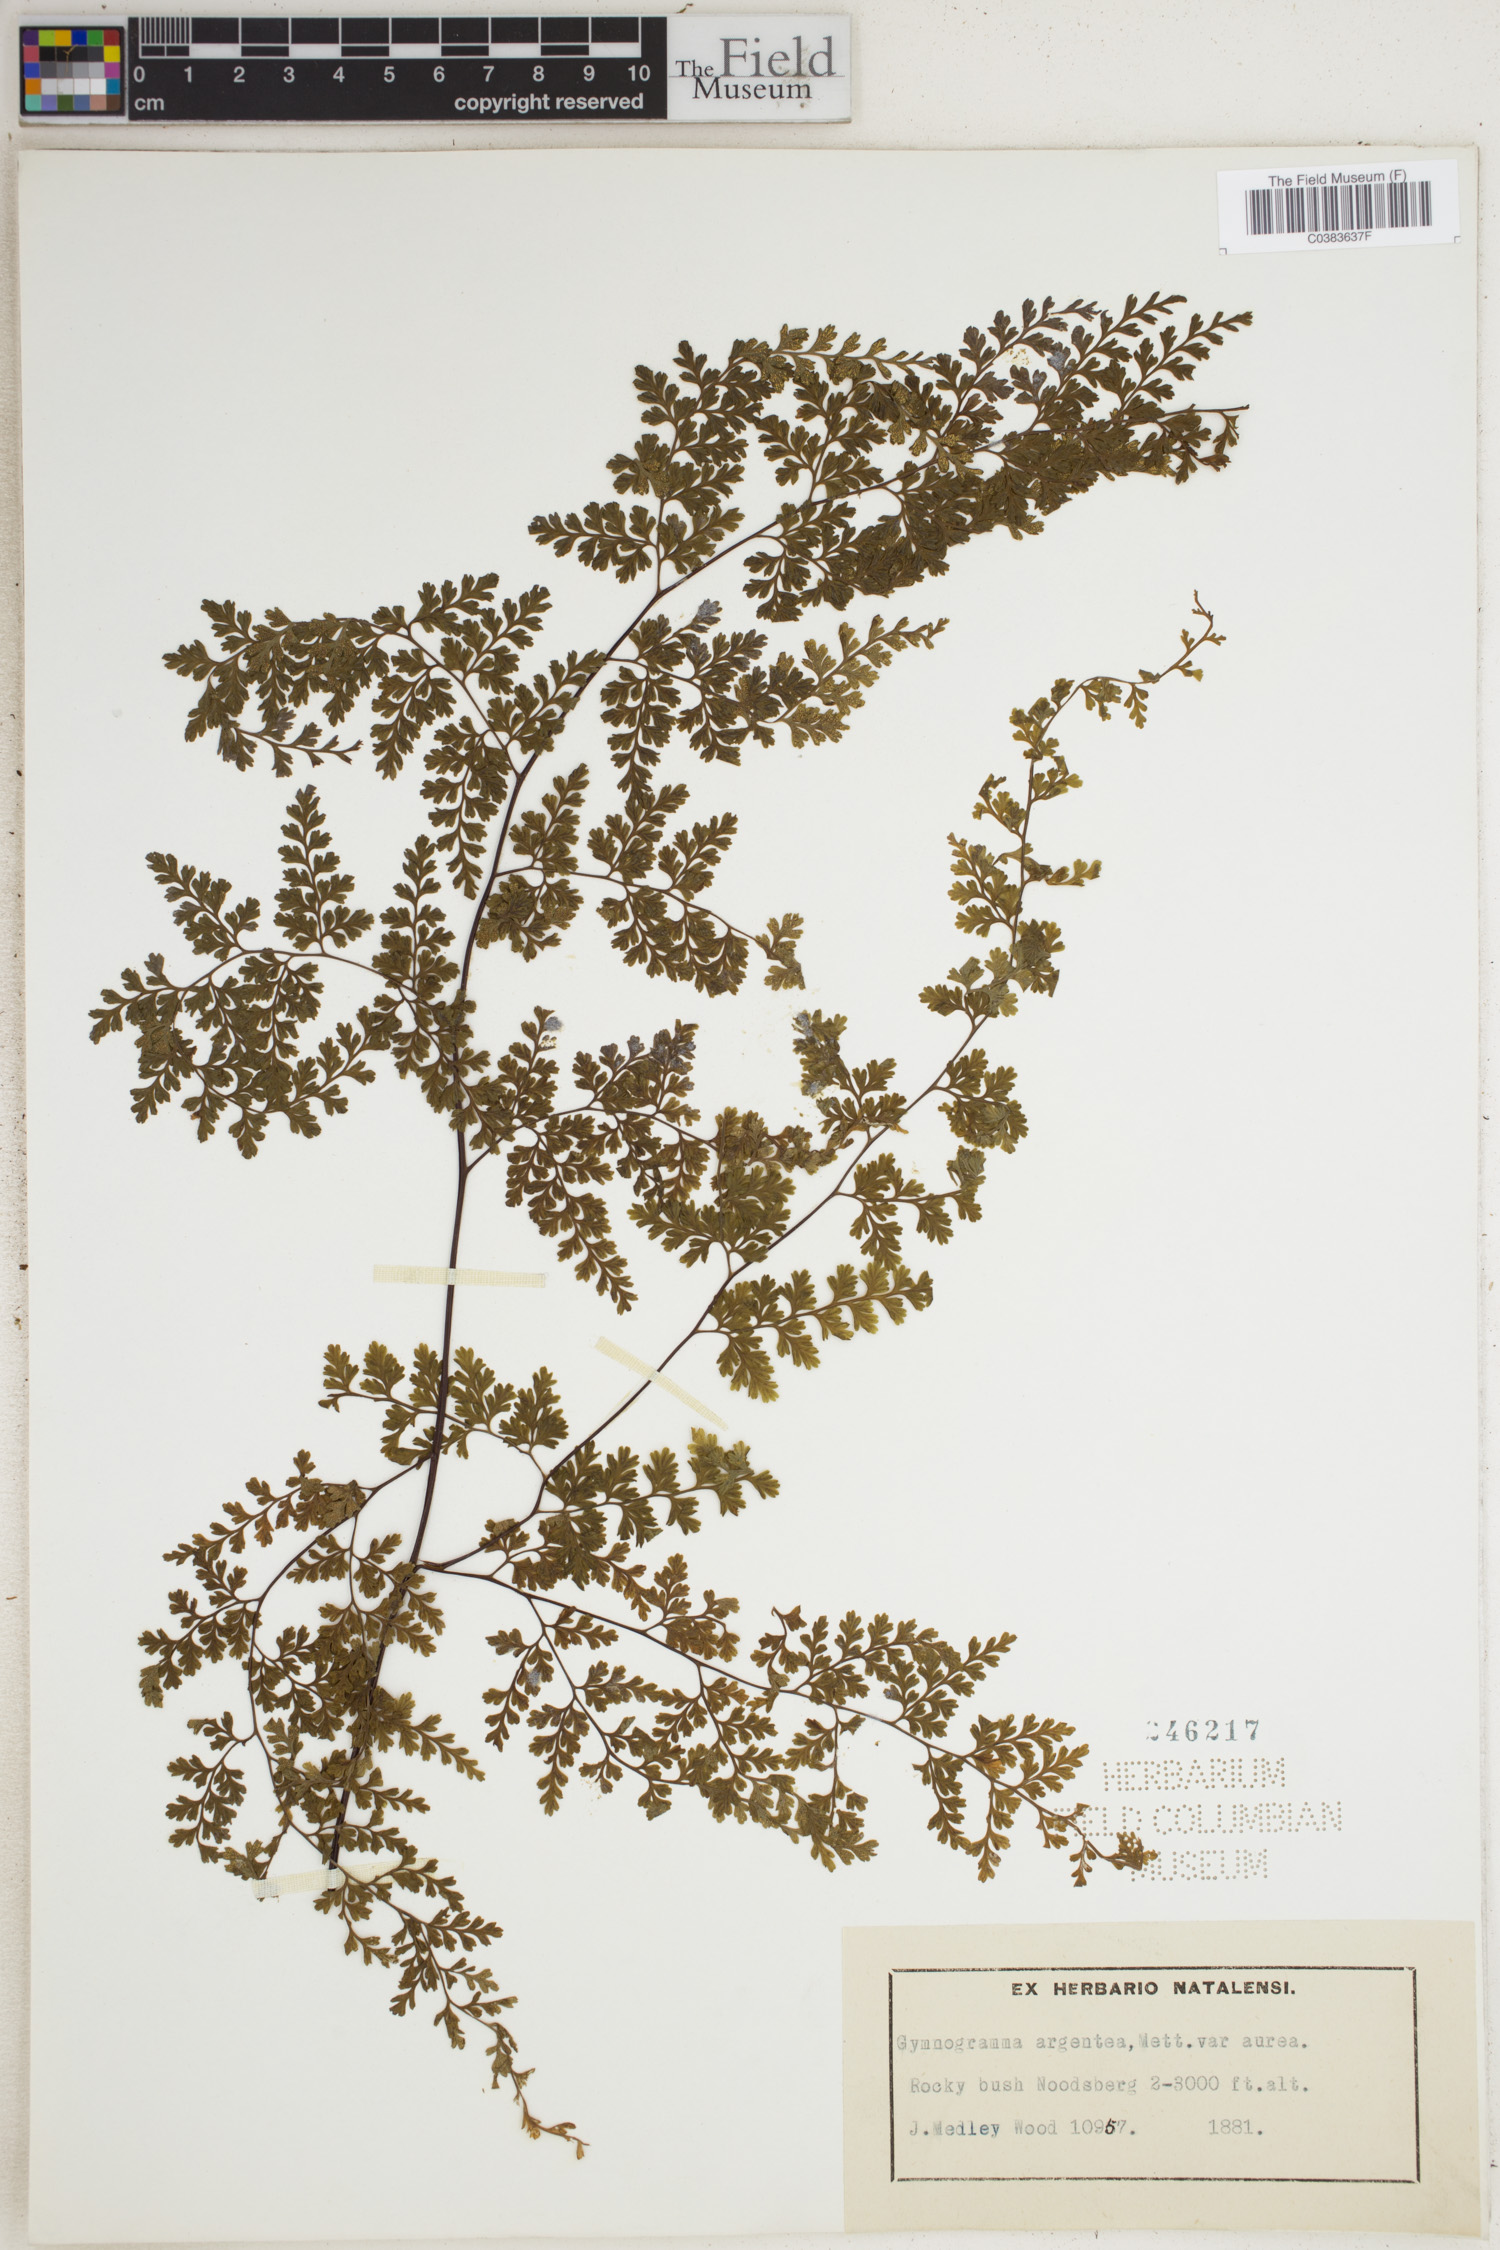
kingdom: Plantae
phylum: Tracheophyta
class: Polypodiopsida
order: Polypodiales
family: Pteridaceae
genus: Cerosora
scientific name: Cerosora argentea
